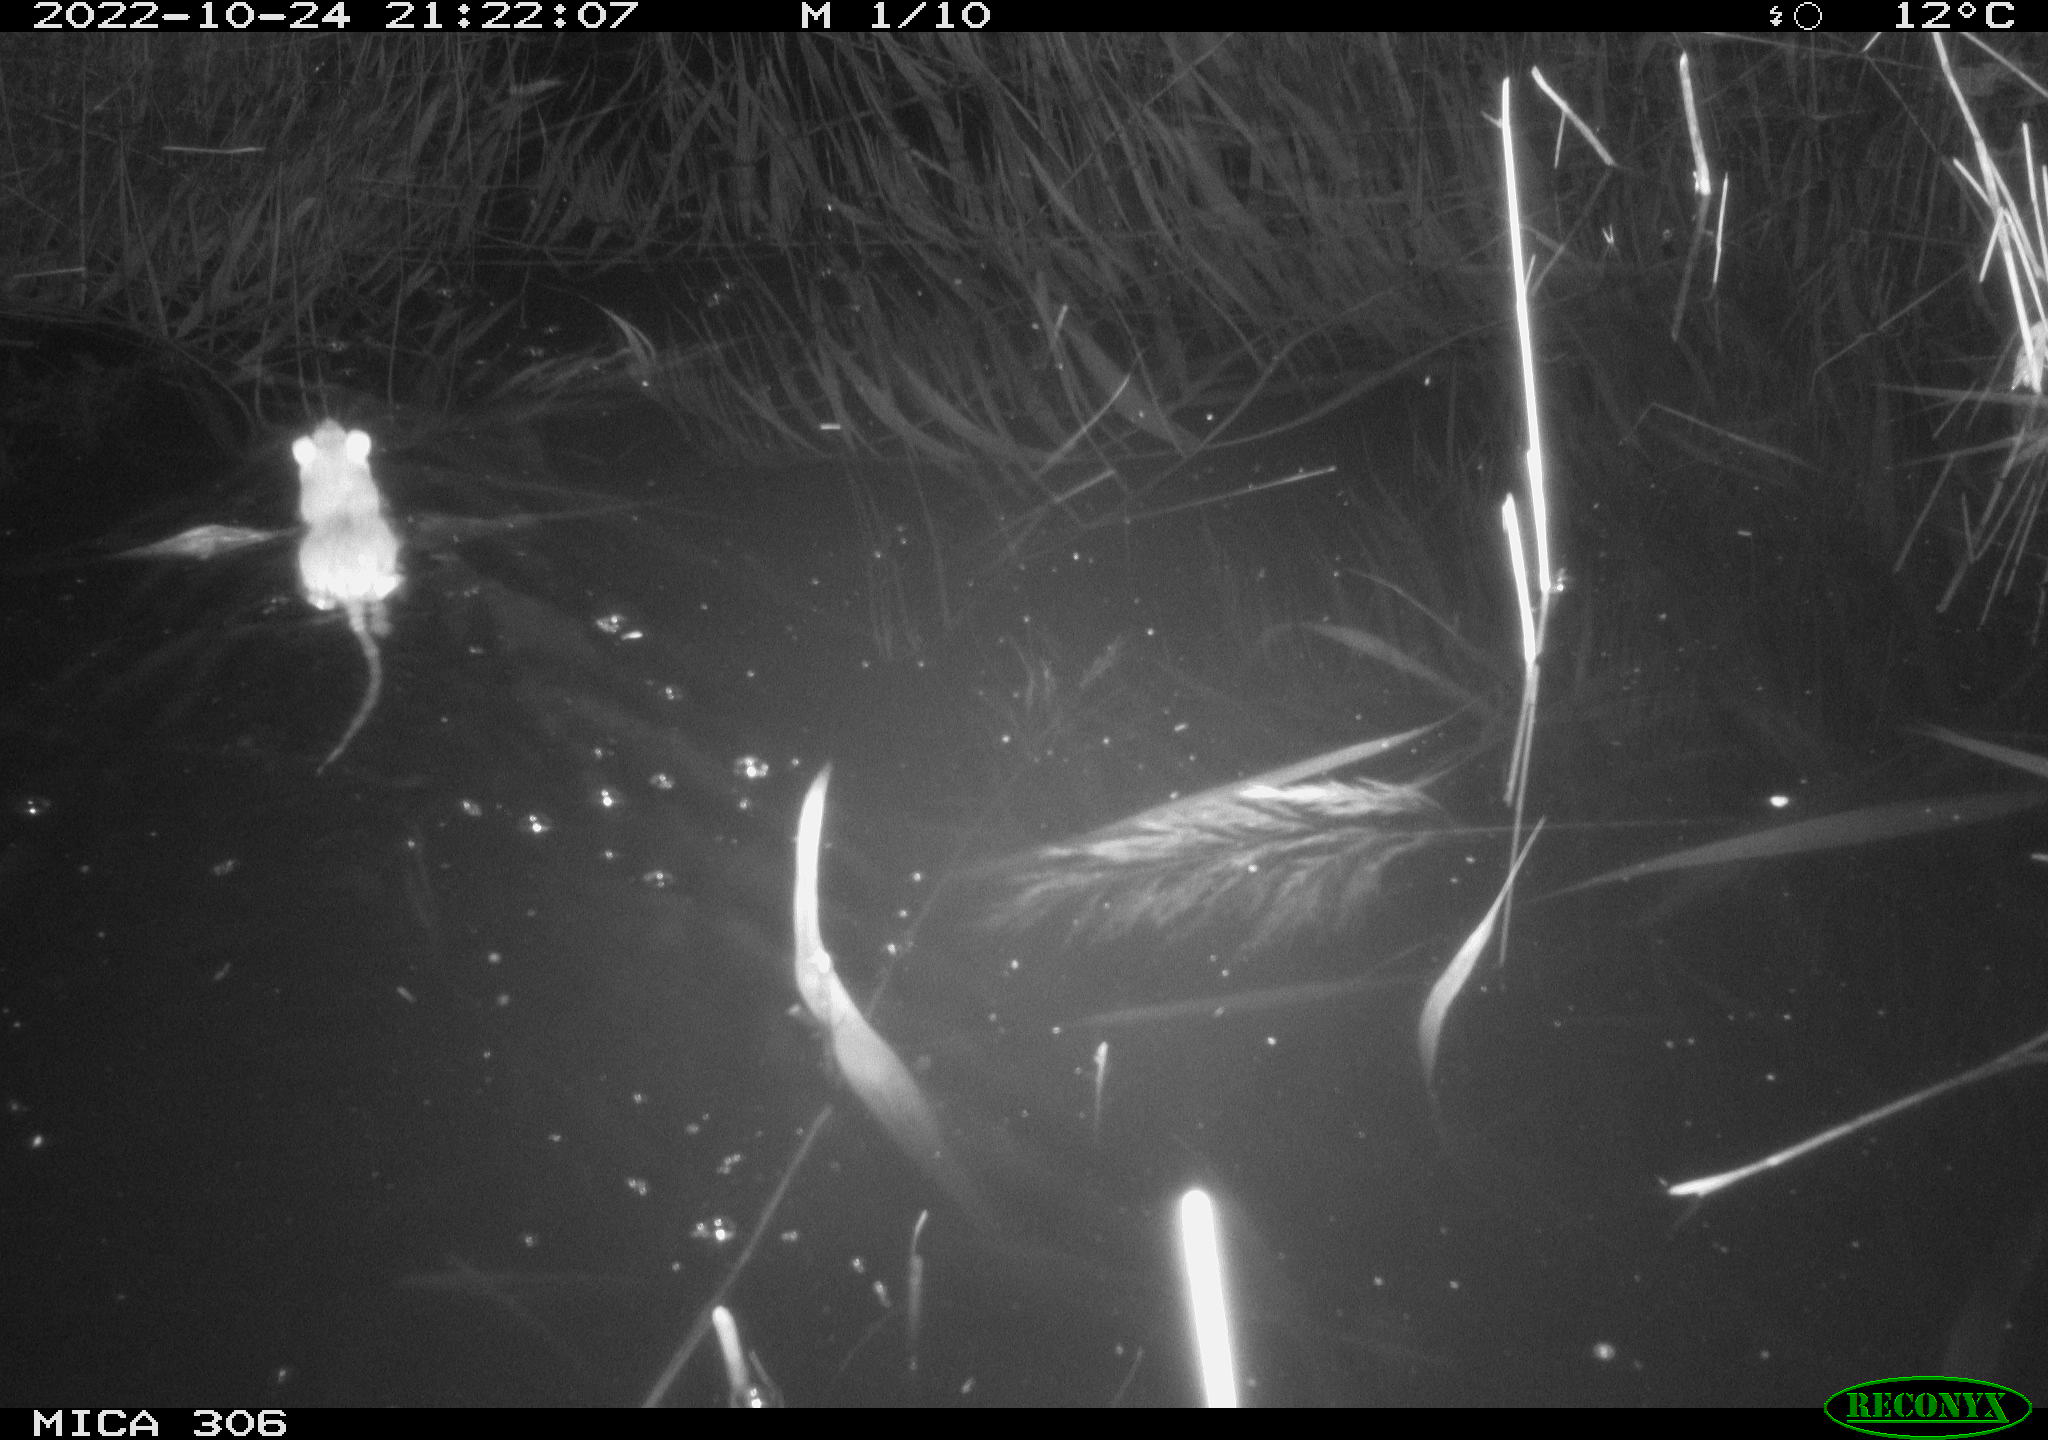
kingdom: Animalia
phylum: Chordata
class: Mammalia
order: Rodentia
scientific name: Rodentia
